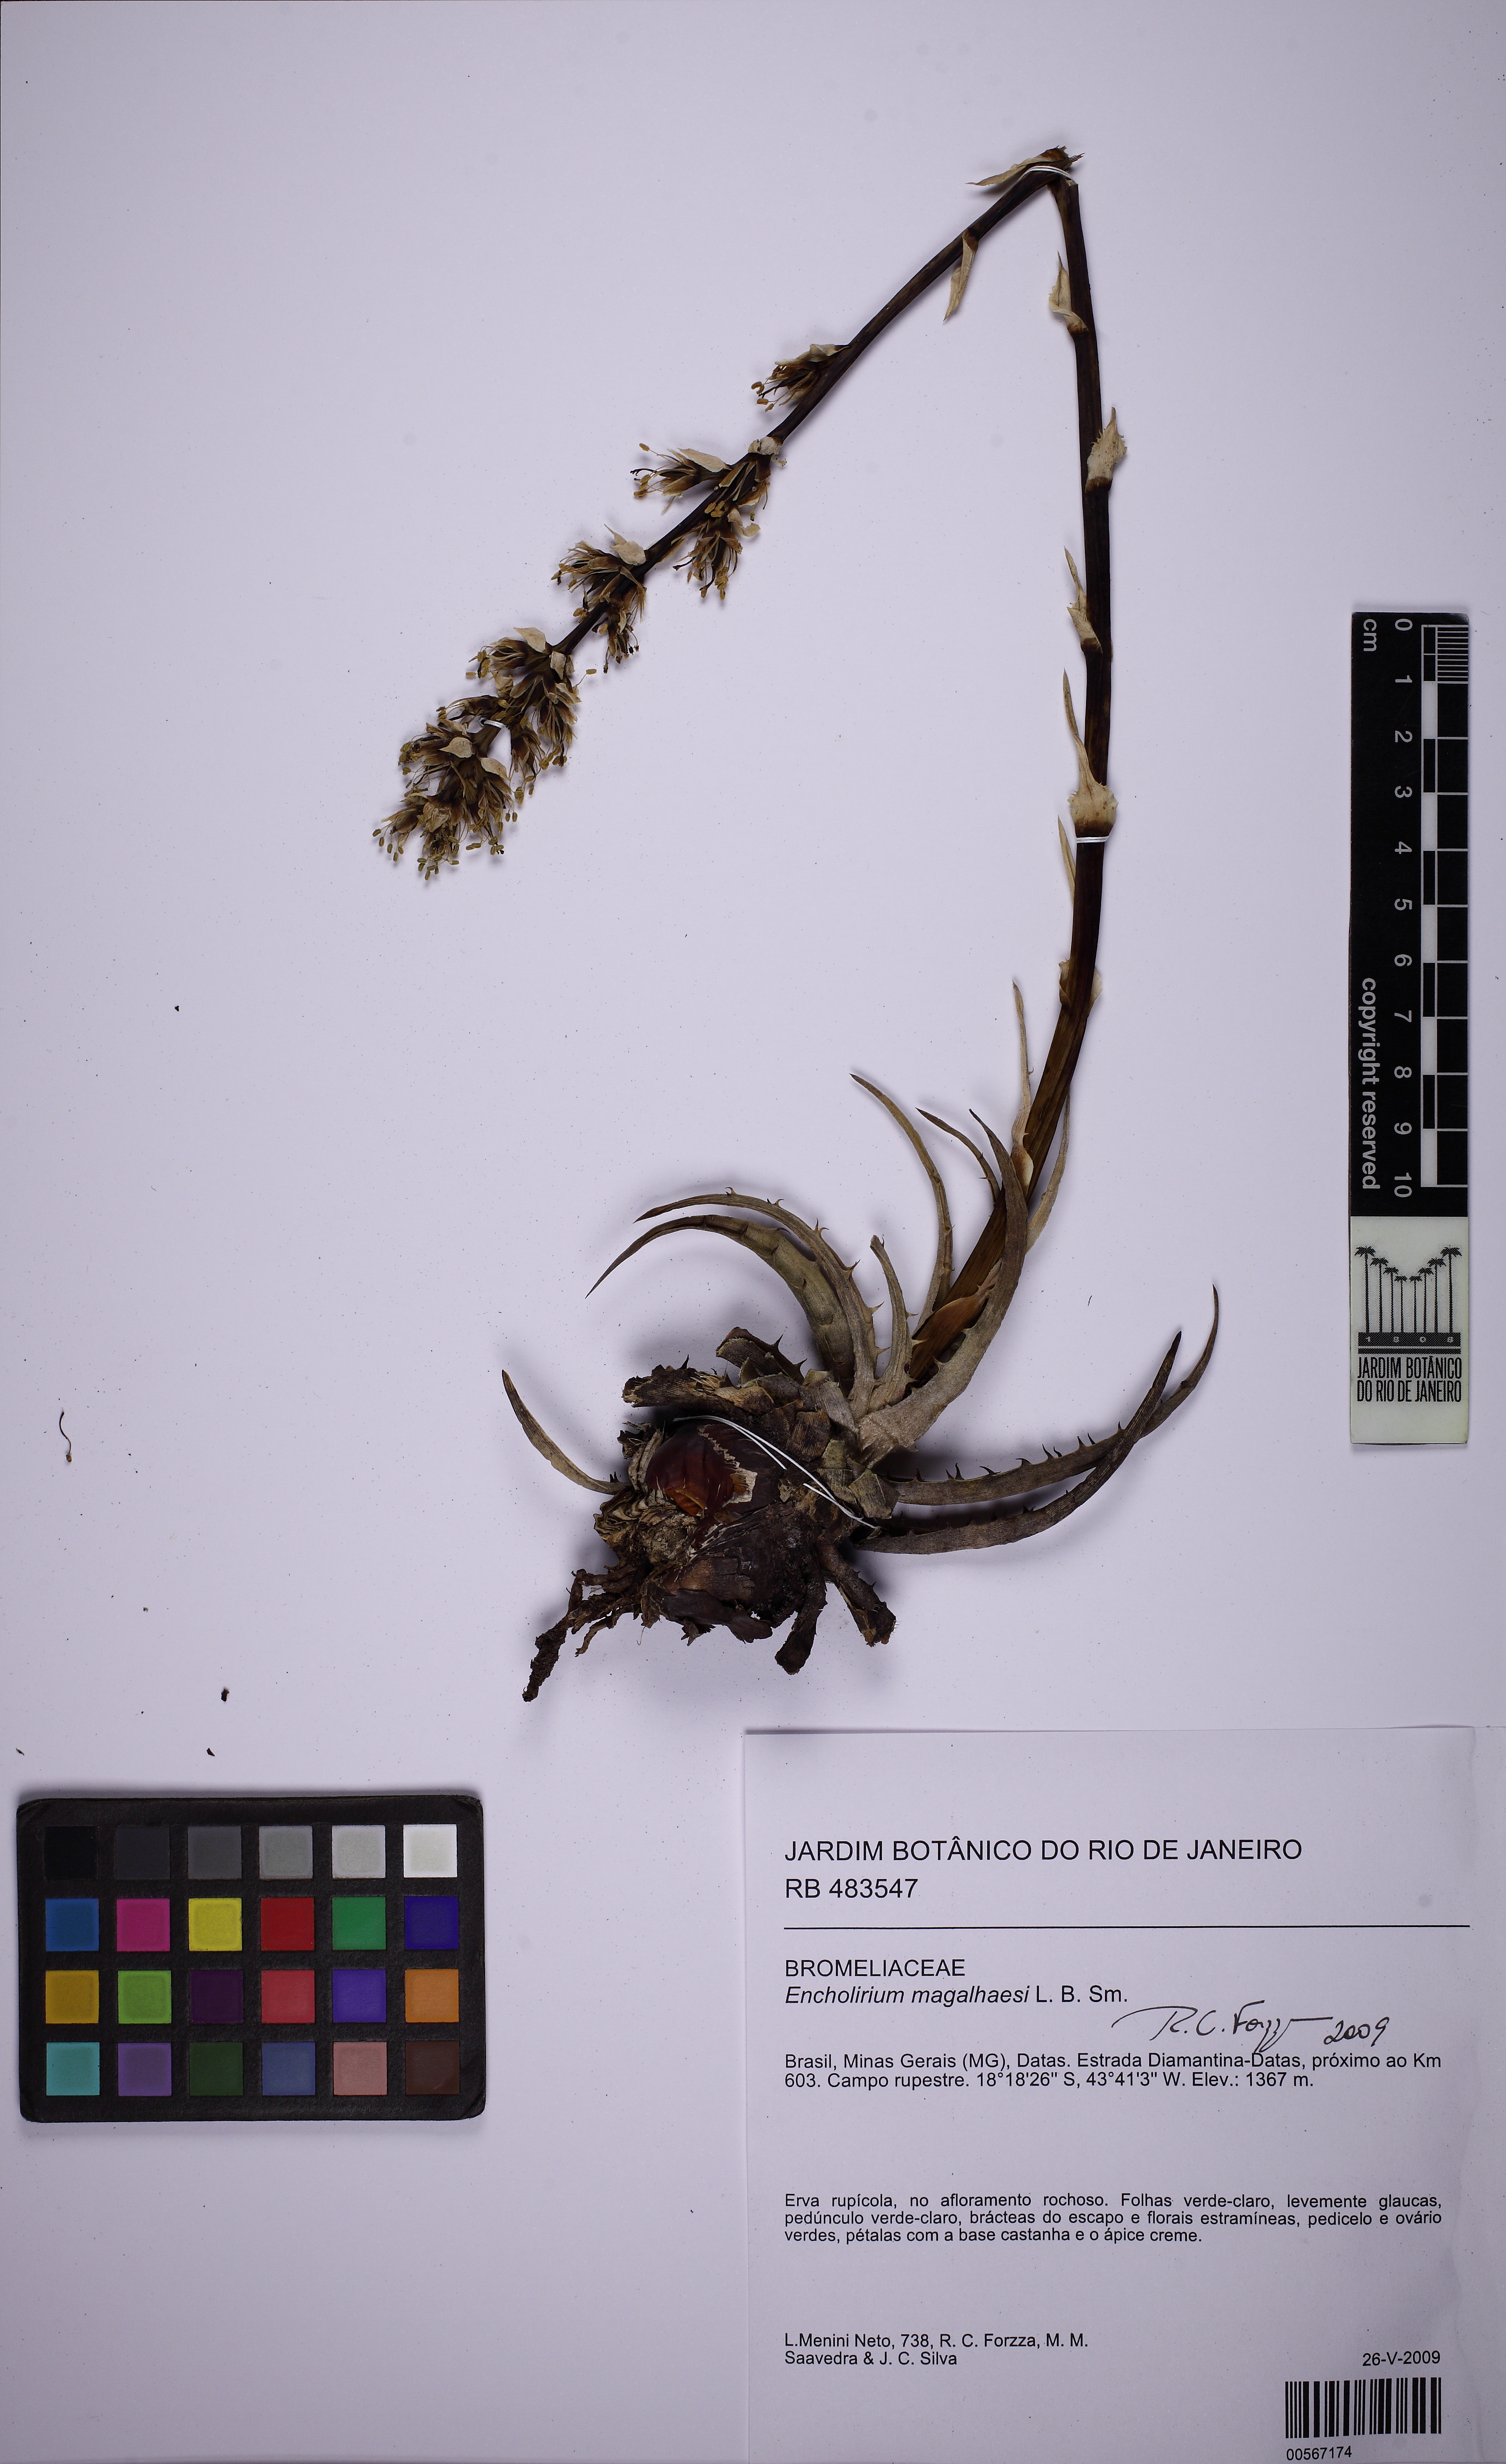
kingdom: Plantae
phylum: Tracheophyta
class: Liliopsida
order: Poales
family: Bromeliaceae
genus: Encholirium
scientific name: Encholirium magalhaesii
